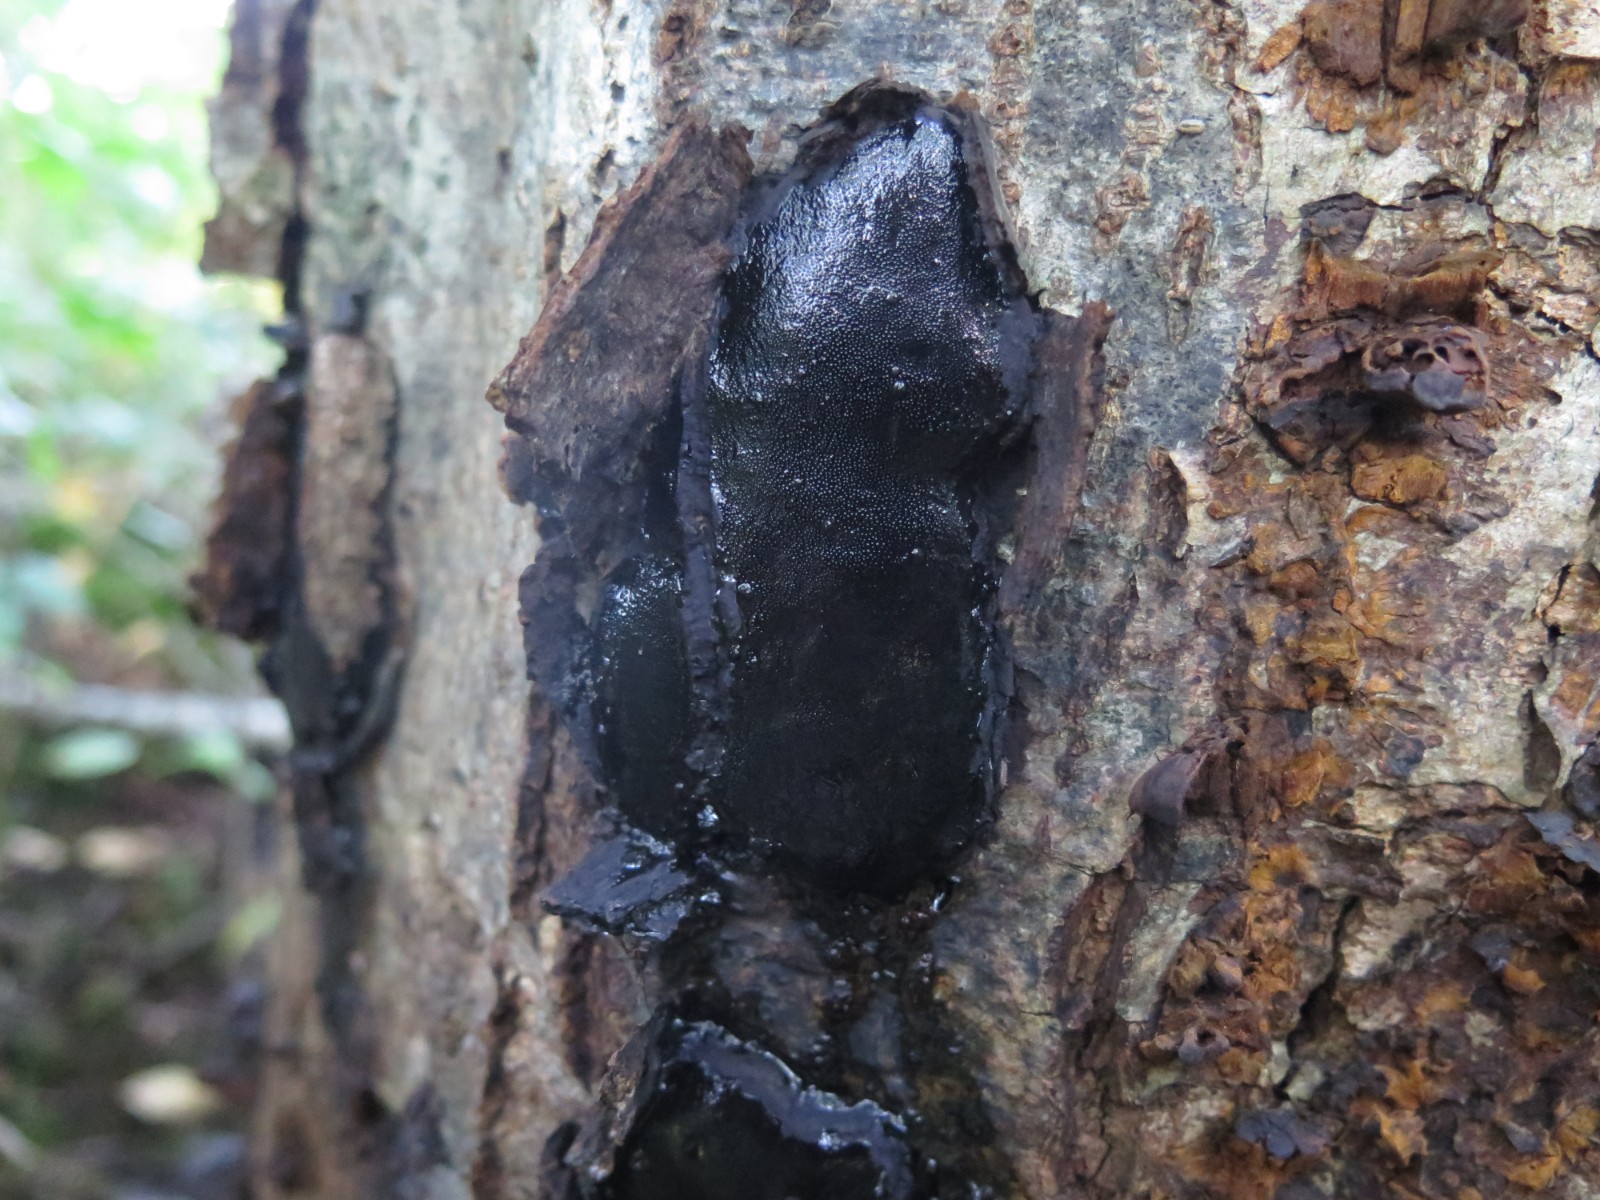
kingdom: Fungi
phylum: Ascomycota
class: Sordariomycetes
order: Boliniales
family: Boliniaceae
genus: Camarops
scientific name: Camarops polysperma
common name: elle-kulsnegl
